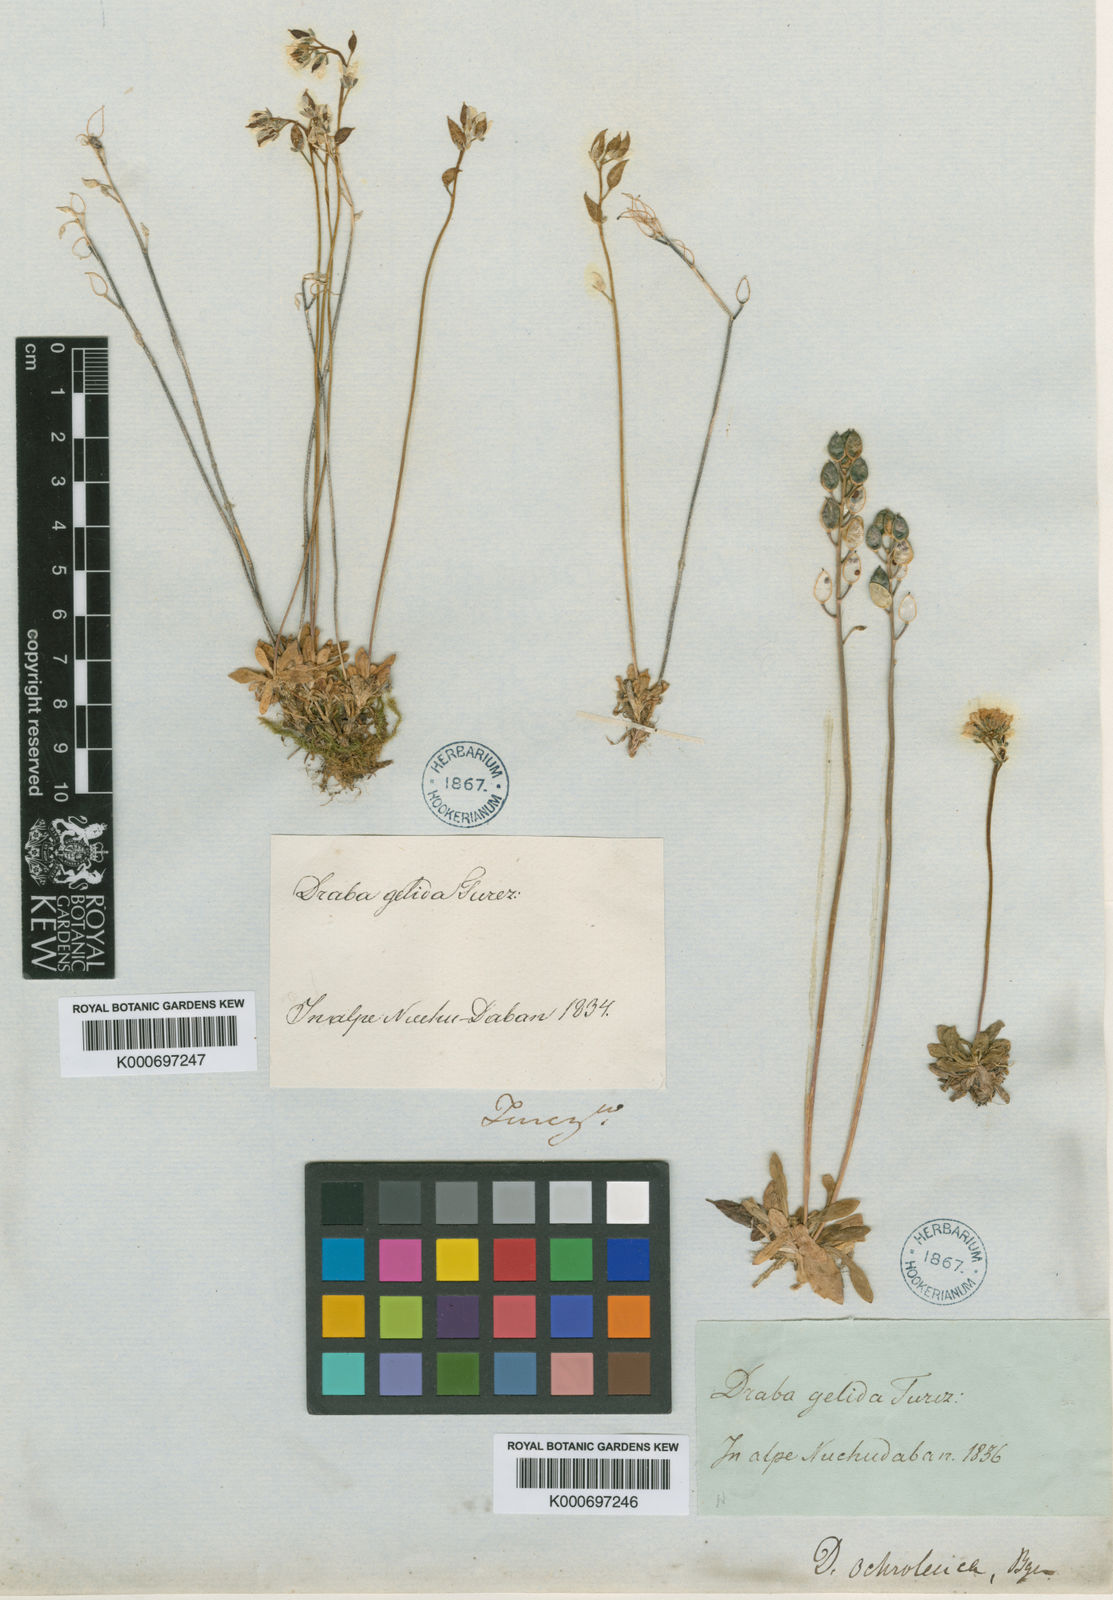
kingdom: Plantae
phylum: Tracheophyta
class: Magnoliopsida
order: Brassicales
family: Brassicaceae
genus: Draba
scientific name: Draba ochroleuca
